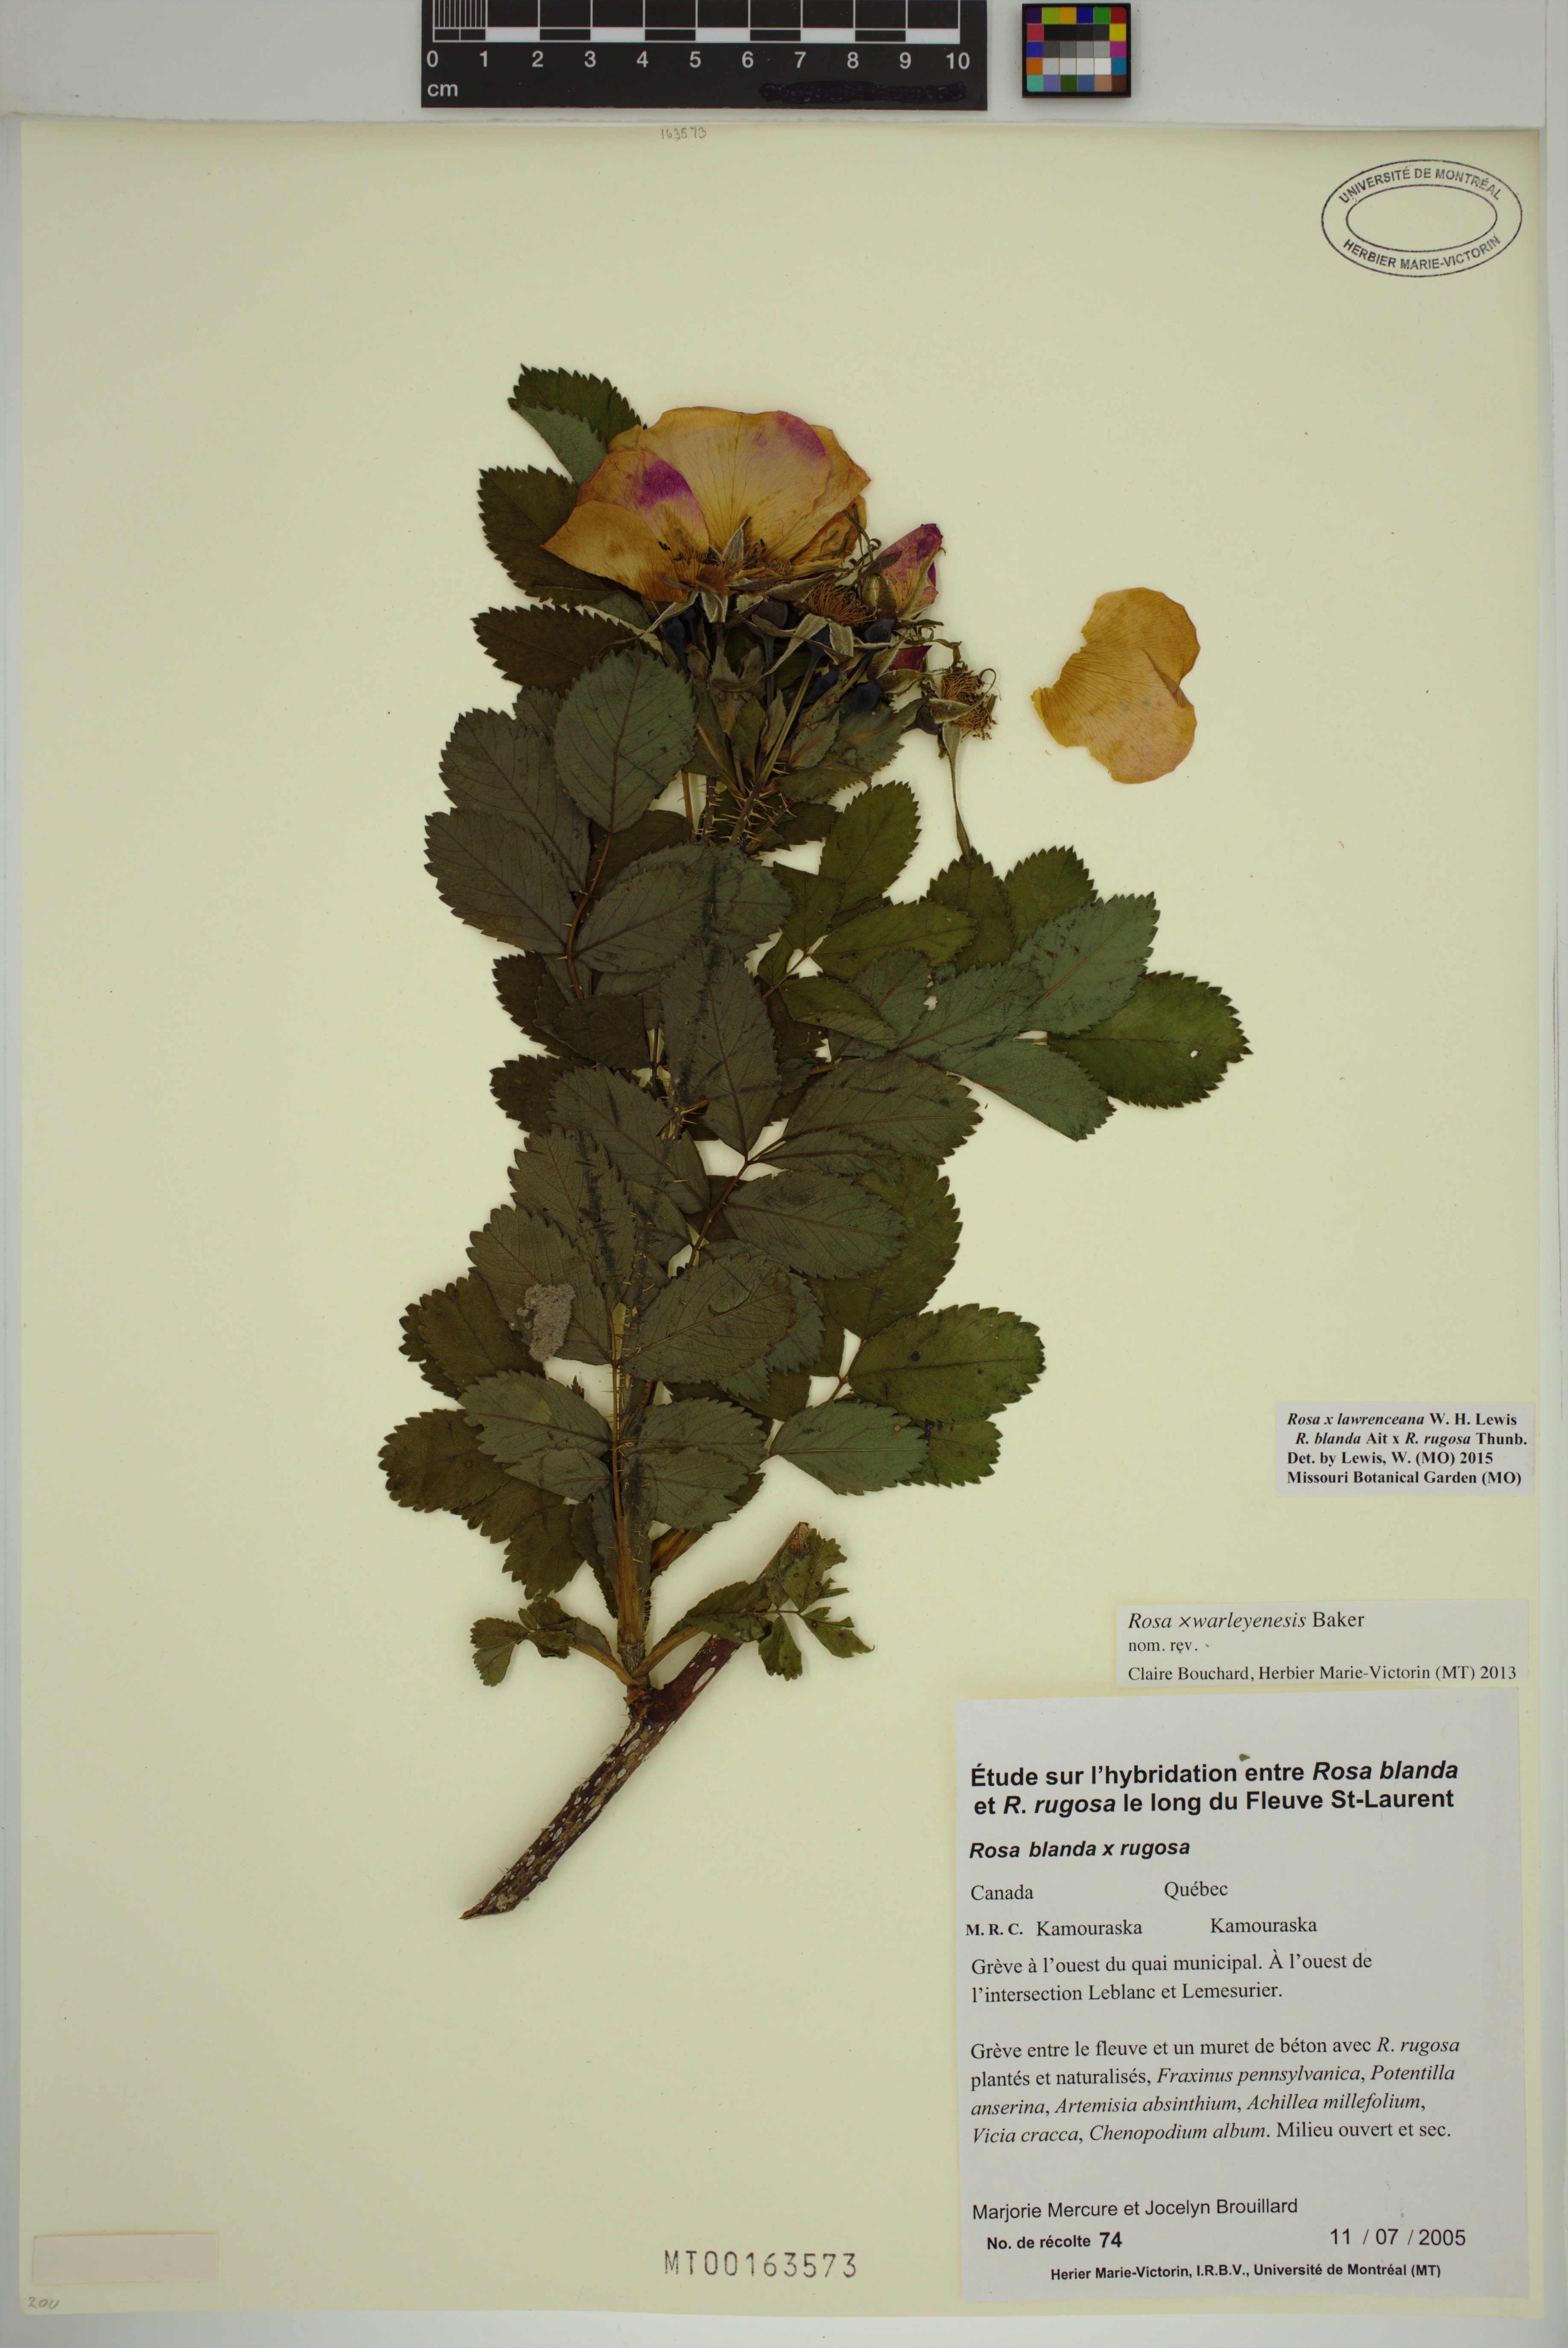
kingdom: Plantae
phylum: Tracheophyta
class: Magnoliopsida
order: Rosales
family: Rosaceae
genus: Rosa
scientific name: Rosa chinensis
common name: China rose
